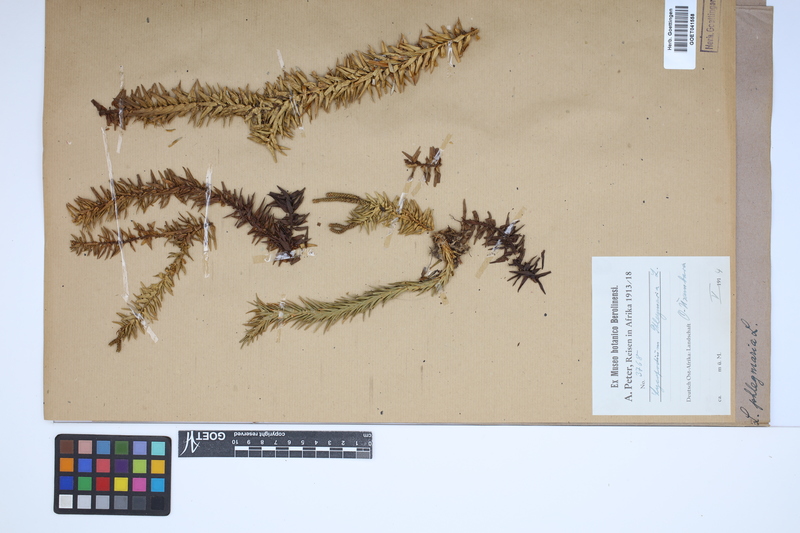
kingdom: Plantae
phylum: Tracheophyta
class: Lycopodiopsida
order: Lycopodiales
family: Lycopodiaceae
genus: Phlegmariurus
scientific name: Phlegmariurus phlegmaria
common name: Coarse tassel-fern
